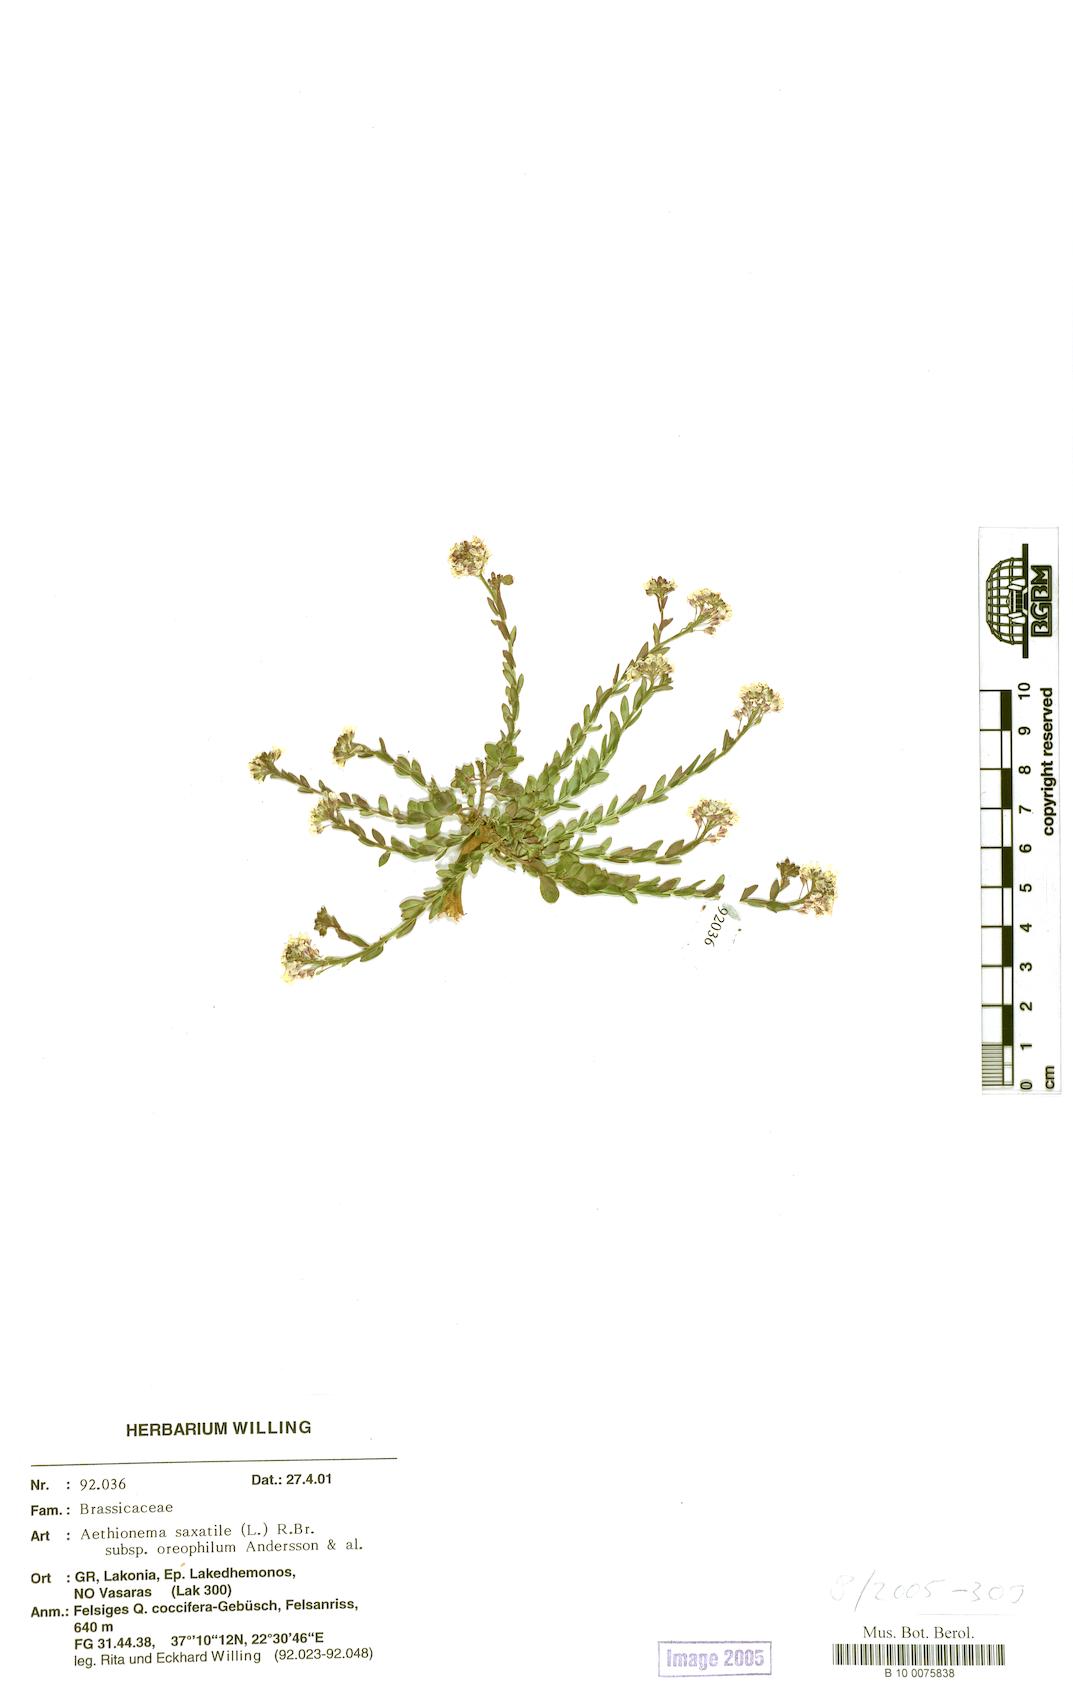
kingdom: Plantae
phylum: Tracheophyta
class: Magnoliopsida
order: Brassicales
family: Brassicaceae
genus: Aethionema
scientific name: Aethionema saxatile
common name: Burnt candytuft
